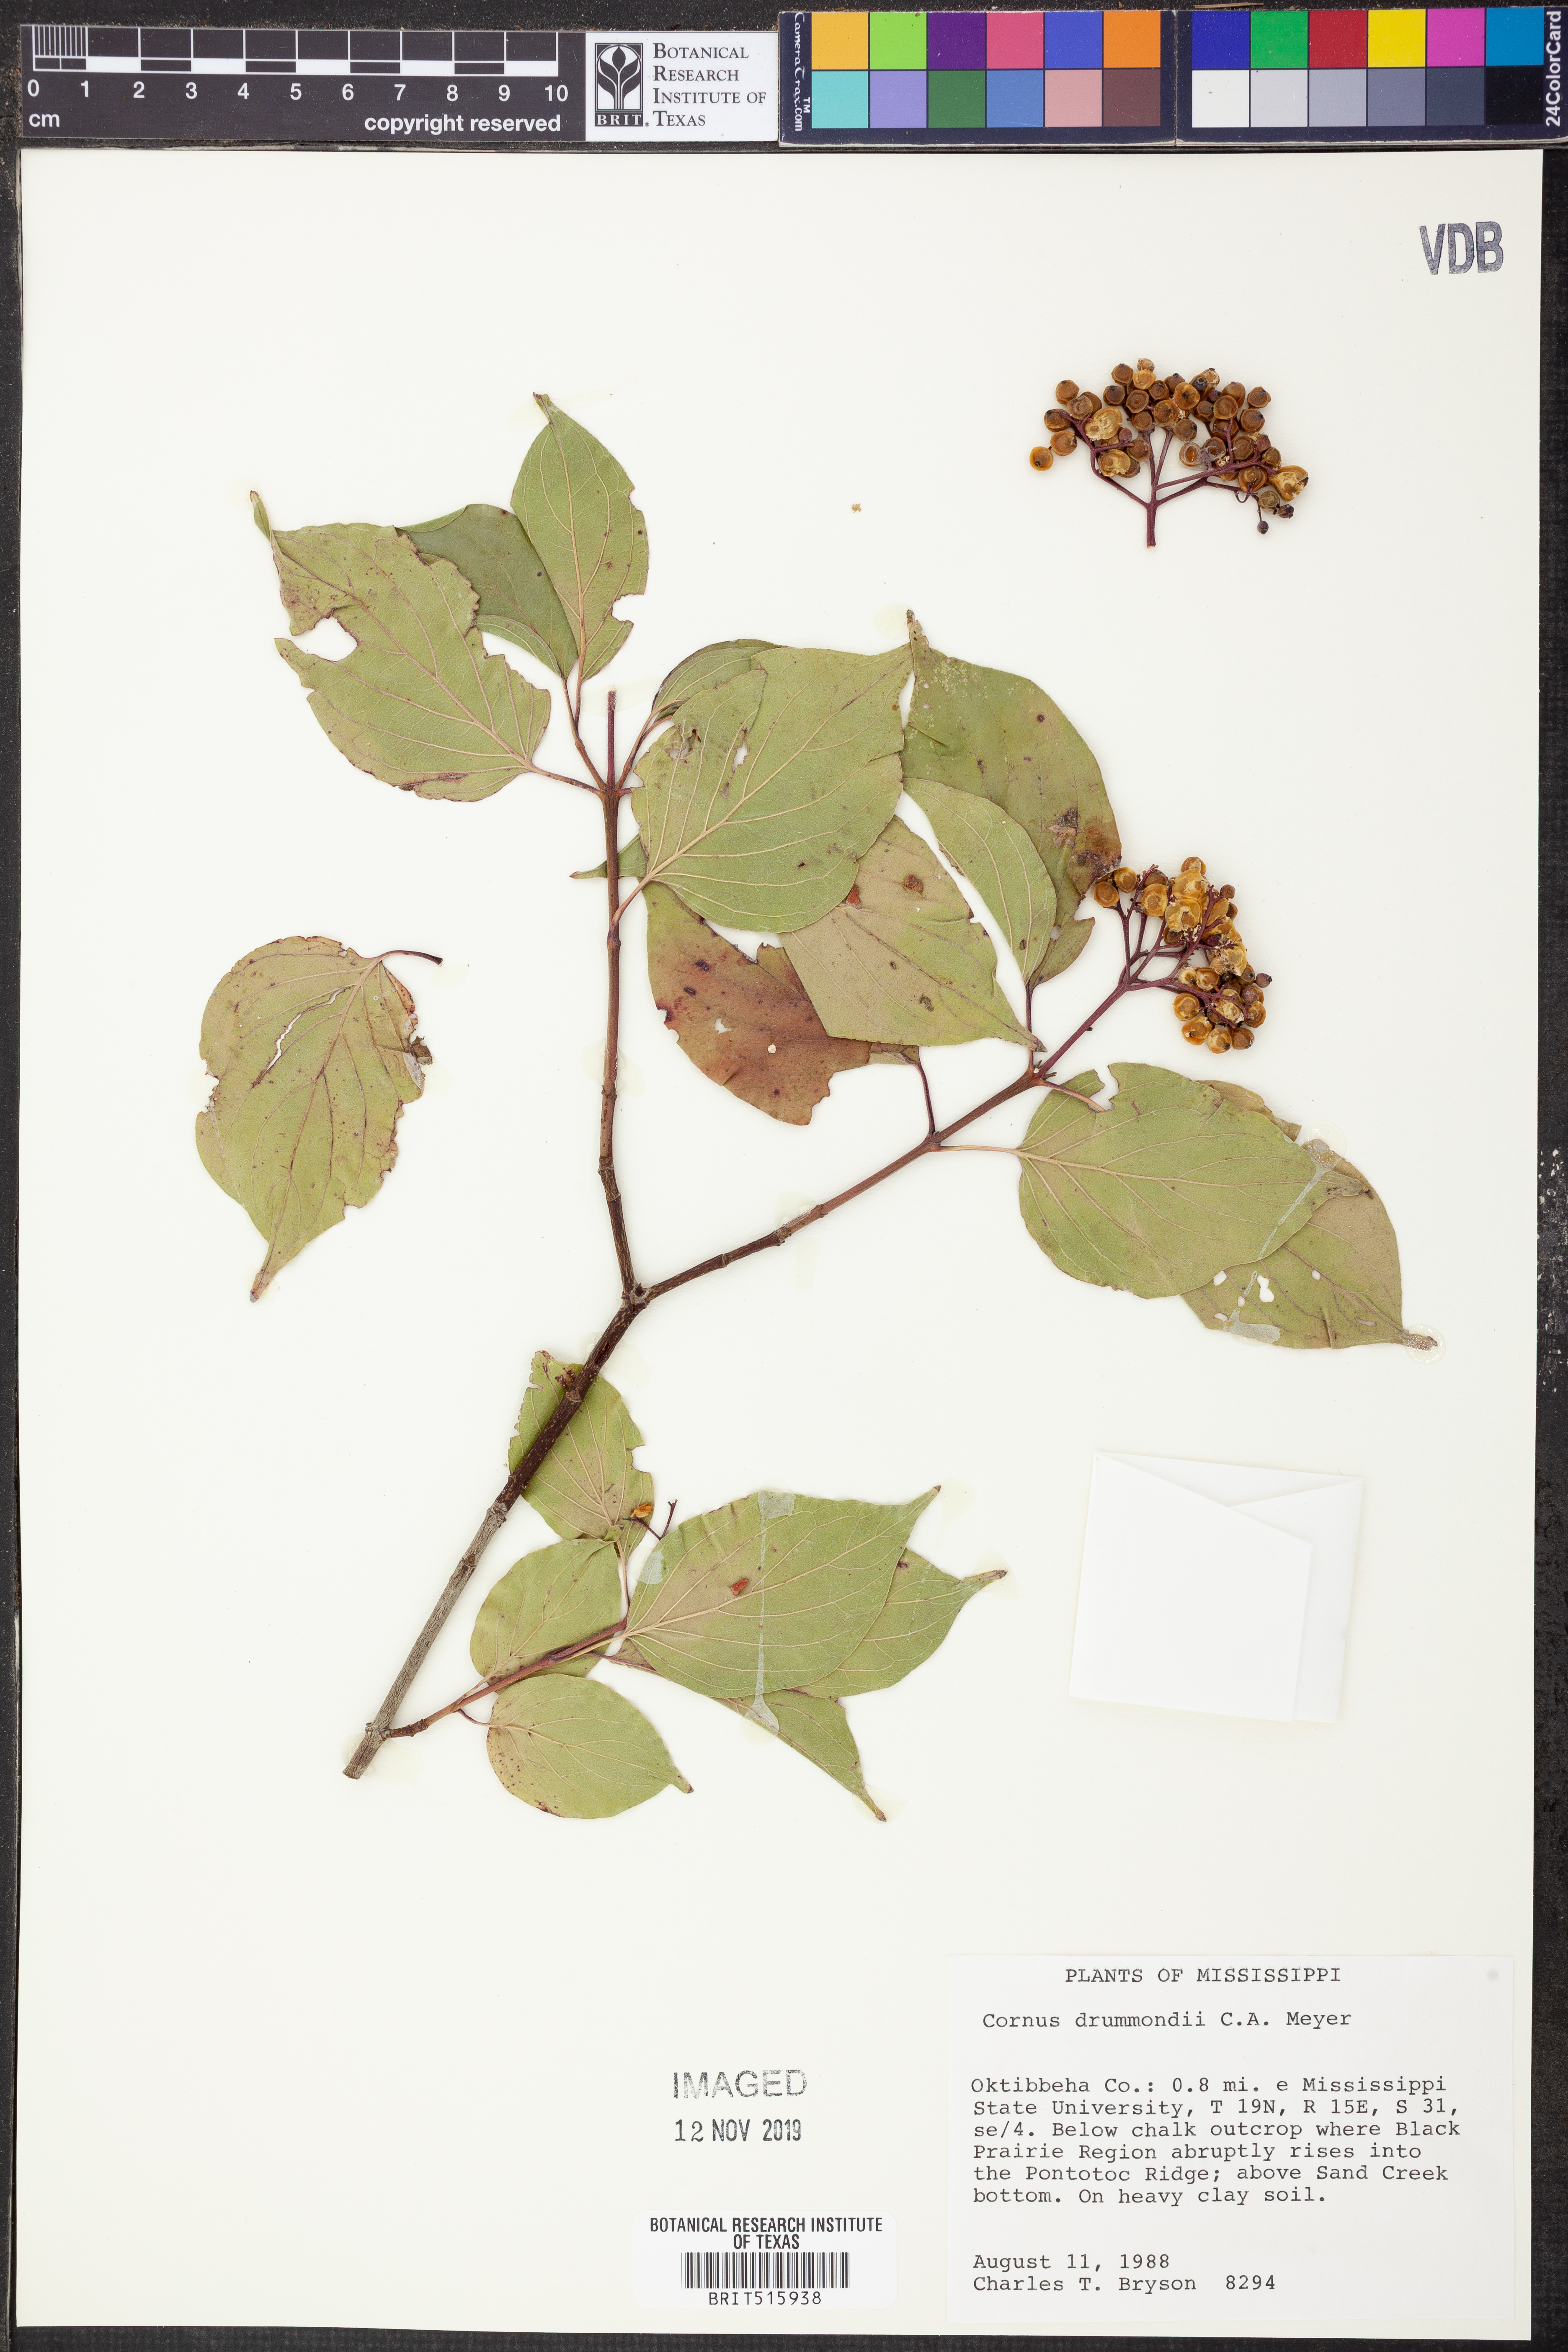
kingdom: Plantae
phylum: Tracheophyta
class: Magnoliopsida
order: Cornales
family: Cornaceae
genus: Cornus
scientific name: Cornus drummondii
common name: Rough-leaf dogwood
